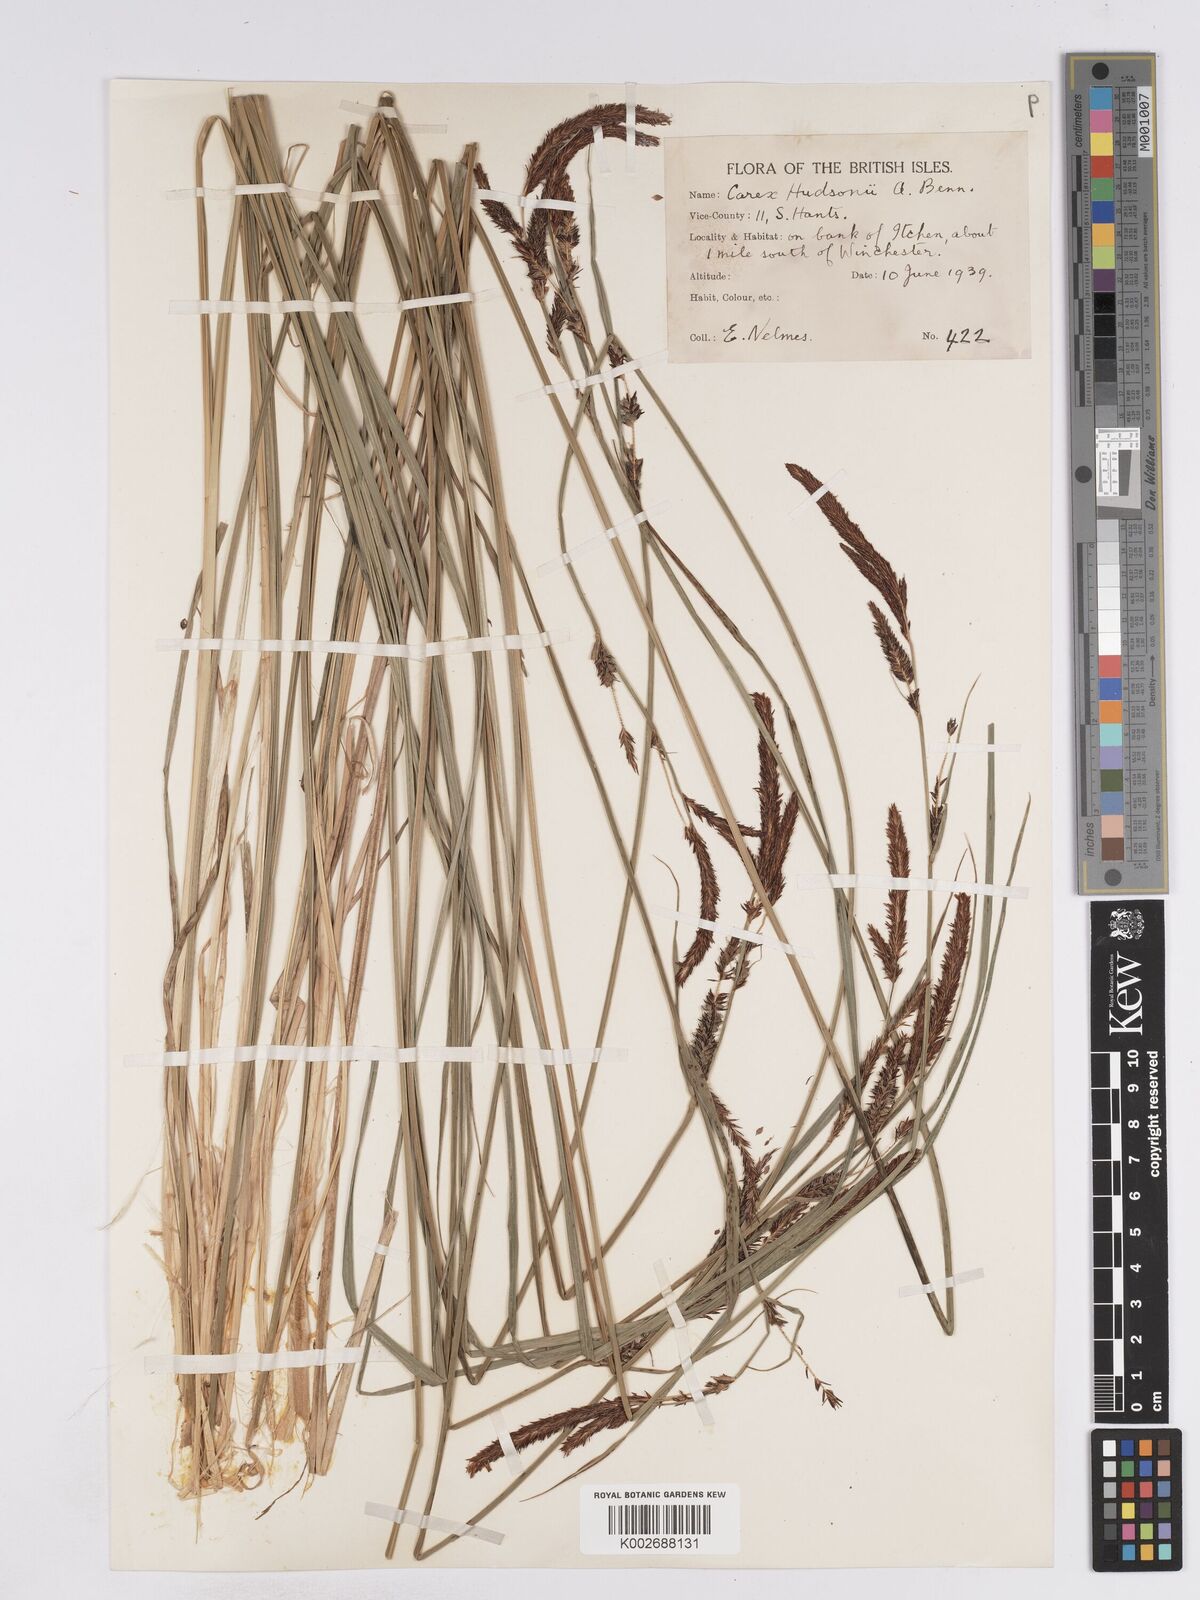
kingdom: Plantae
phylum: Tracheophyta
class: Liliopsida
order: Poales
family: Cyperaceae
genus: Carex
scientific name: Carex elata
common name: Tufted sedge
